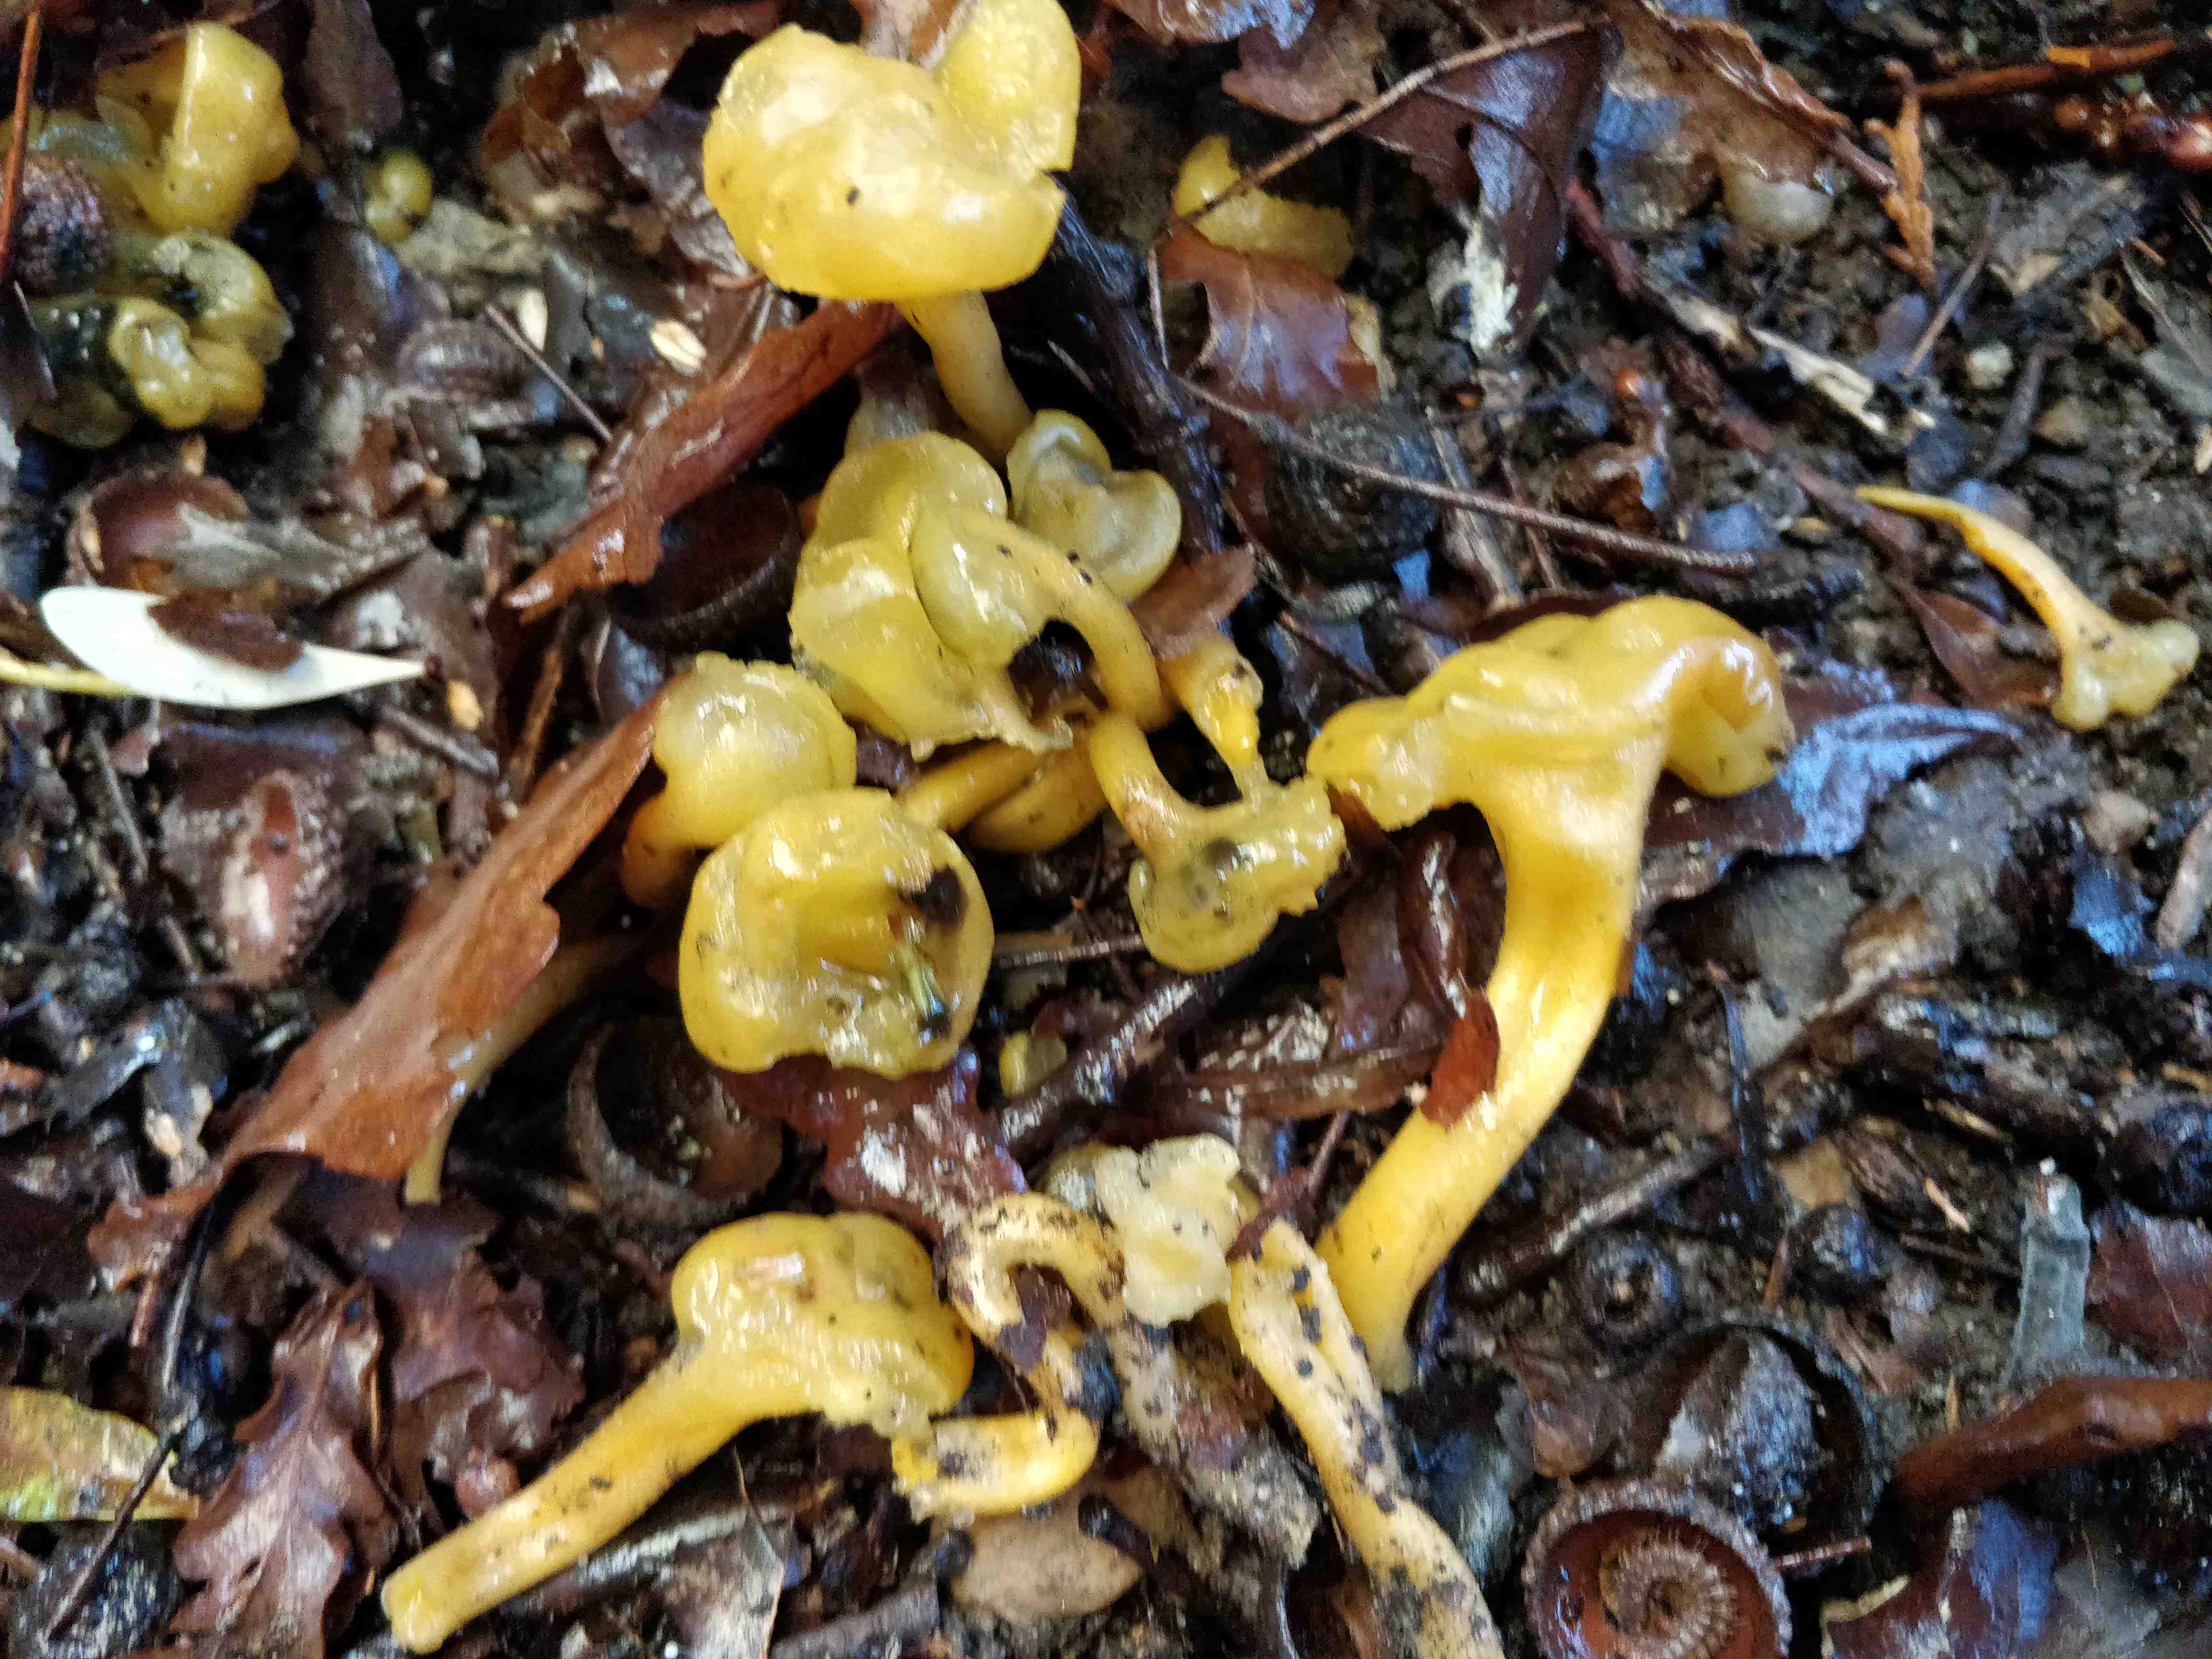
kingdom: Fungi
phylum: Ascomycota
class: Leotiomycetes
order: Leotiales
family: Leotiaceae
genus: Leotia
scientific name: Leotia lubrica
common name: ravsvamp
